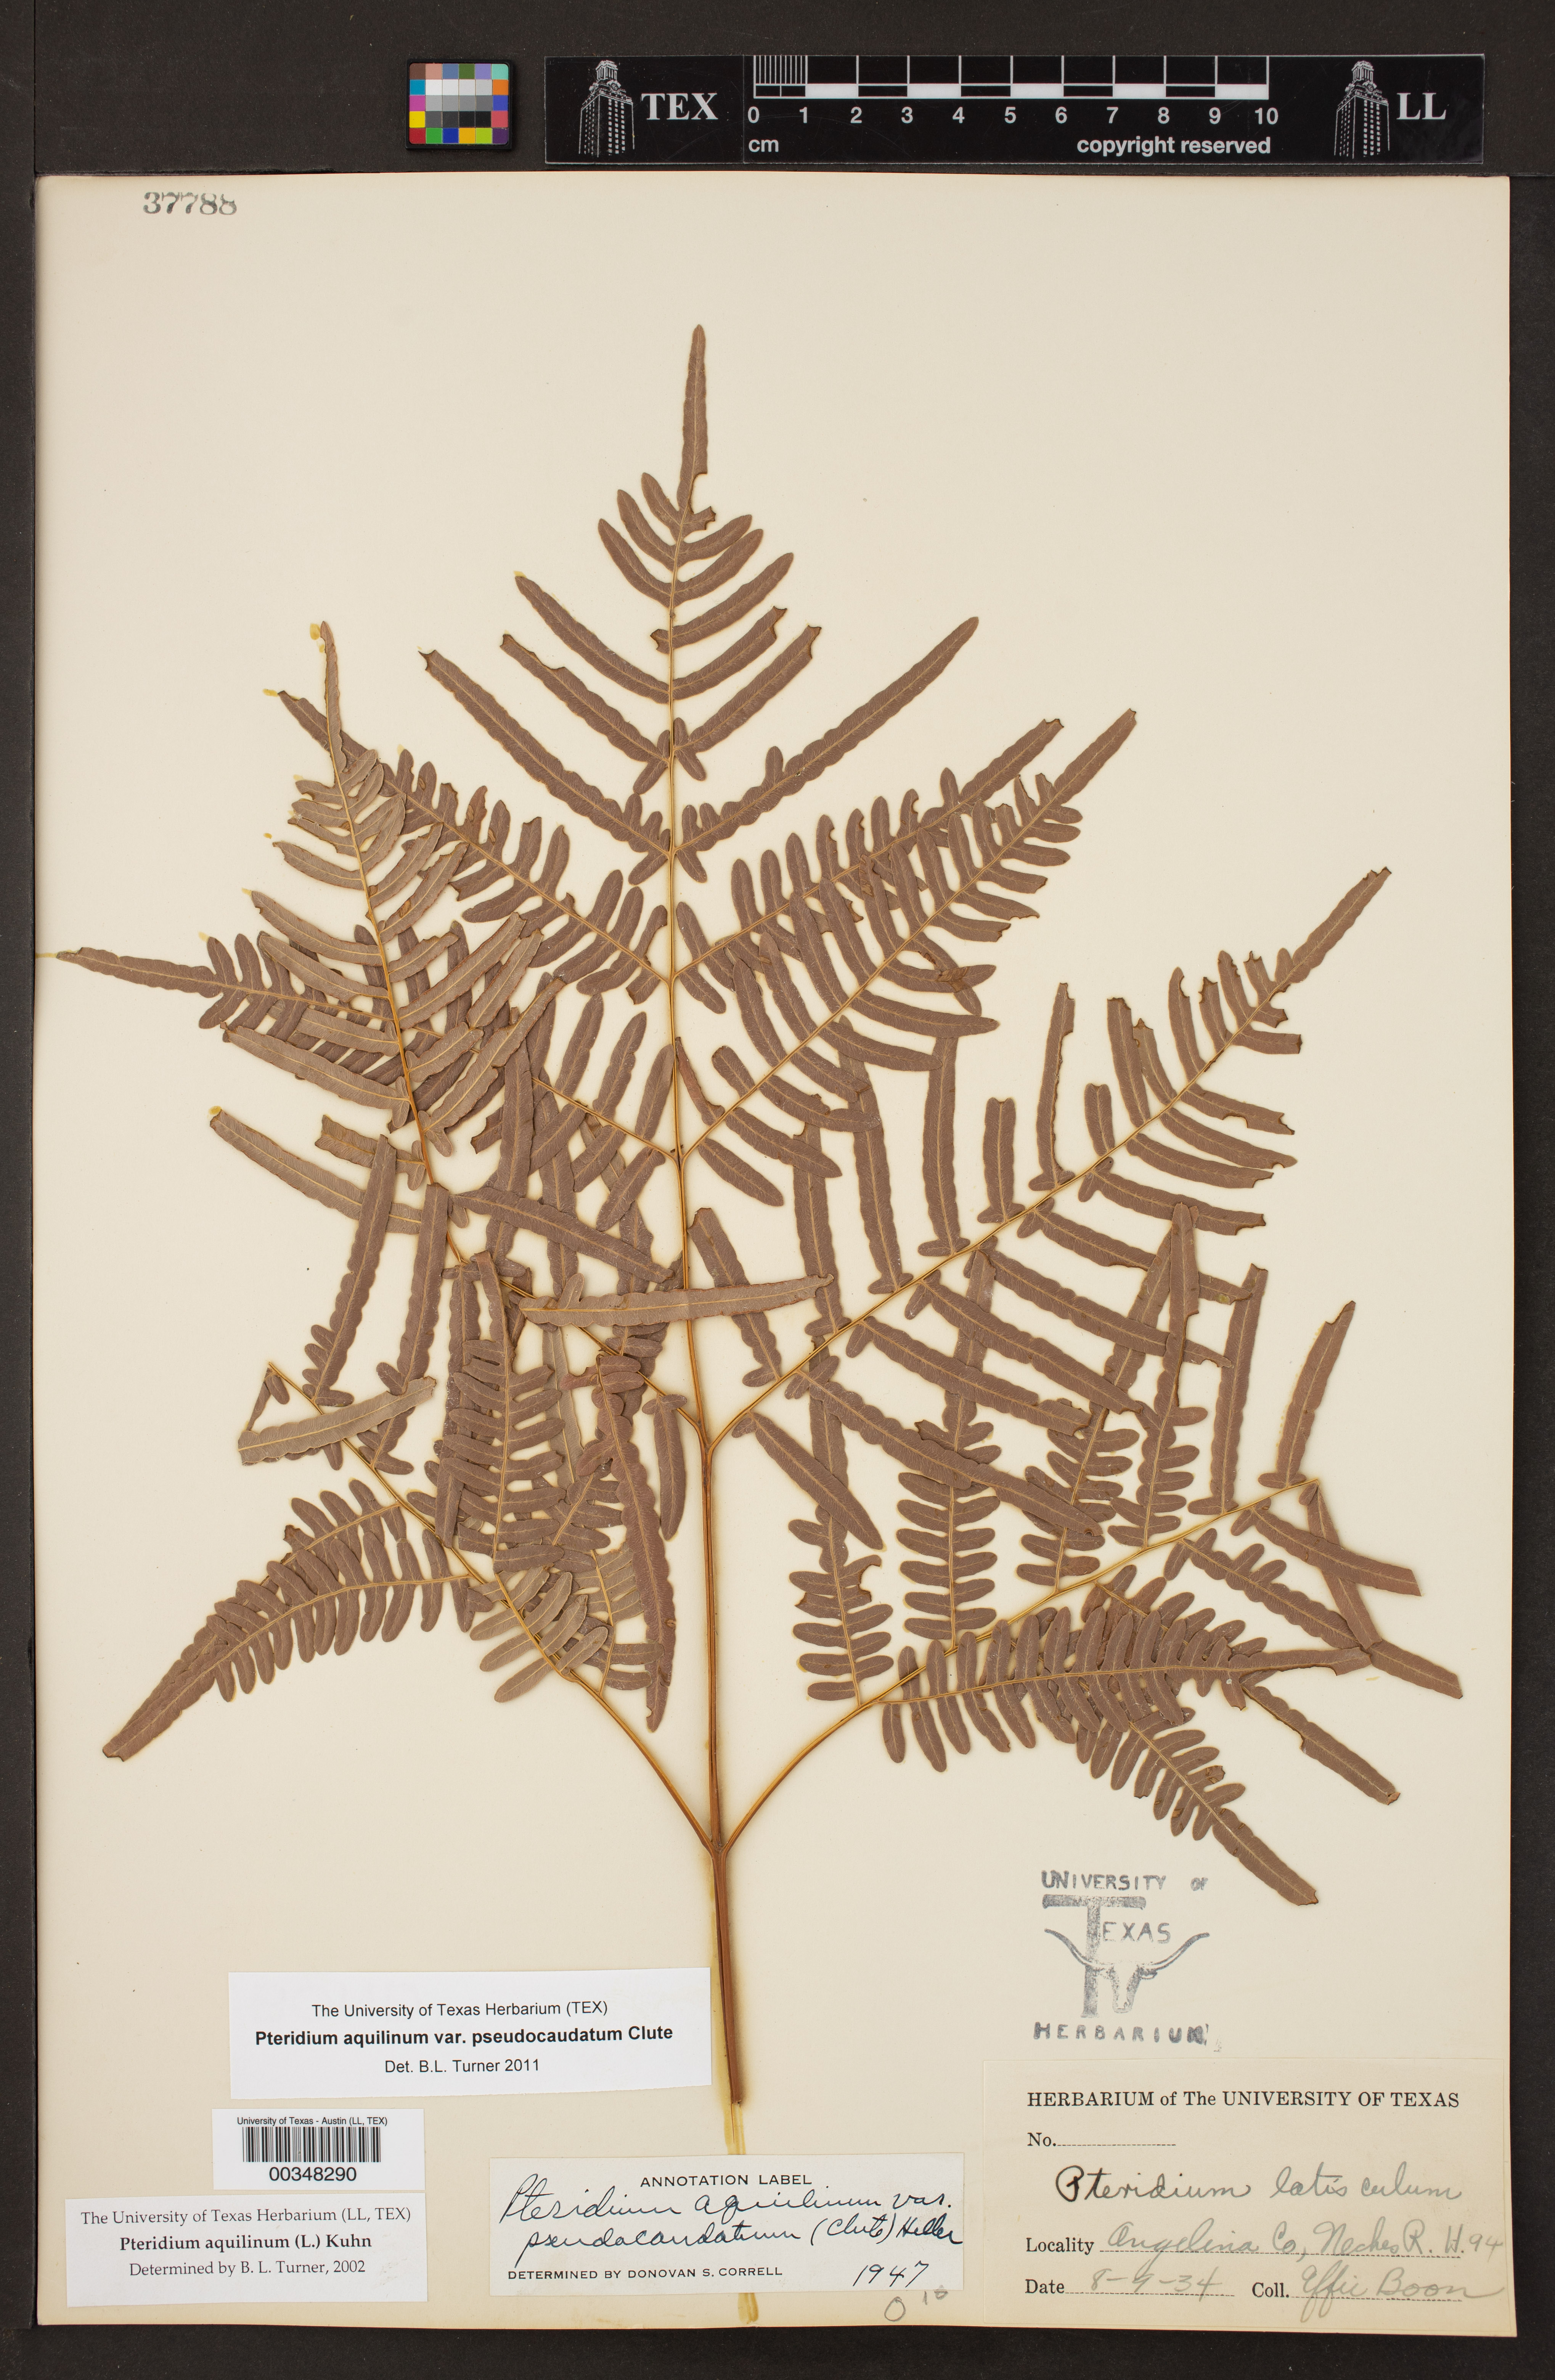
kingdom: Plantae
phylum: Tracheophyta
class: Polypodiopsida
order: Polypodiales
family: Dennstaedtiaceae
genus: Pteridium
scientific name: Pteridium
